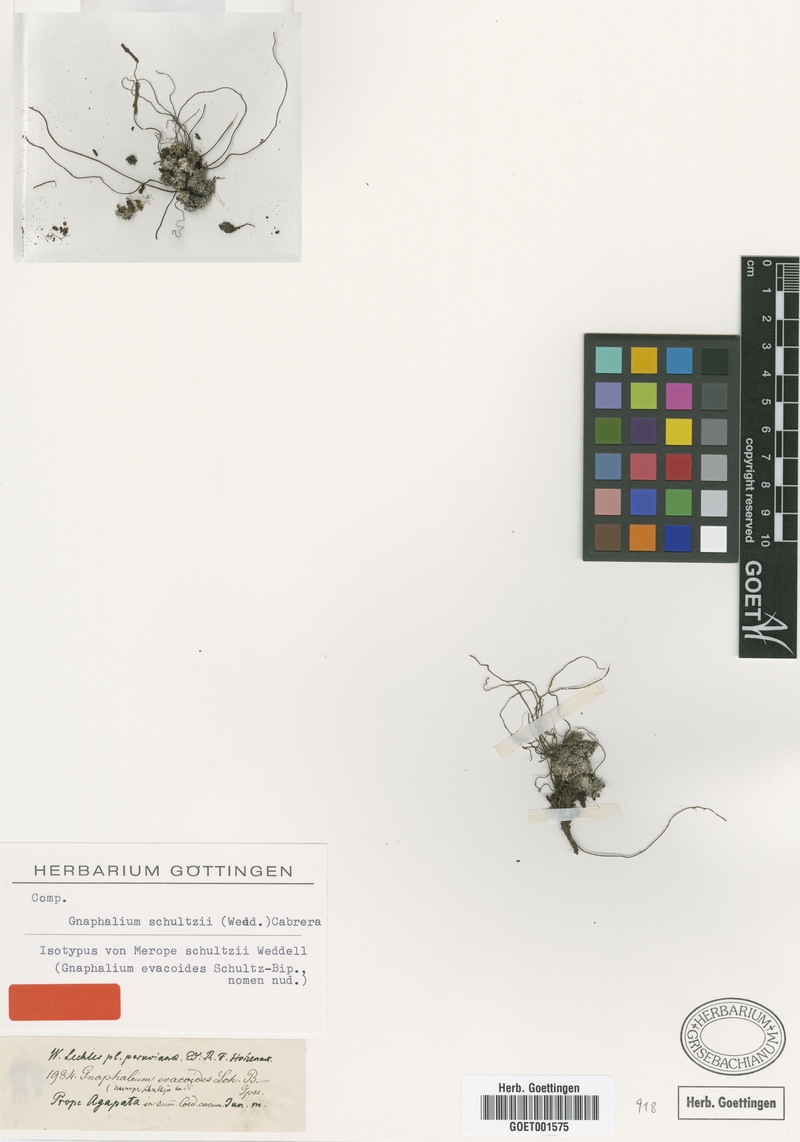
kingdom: Plantae
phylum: Tracheophyta
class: Magnoliopsida
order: Asterales
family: Asteraceae
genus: Mniodes
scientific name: Mniodes schultzii
